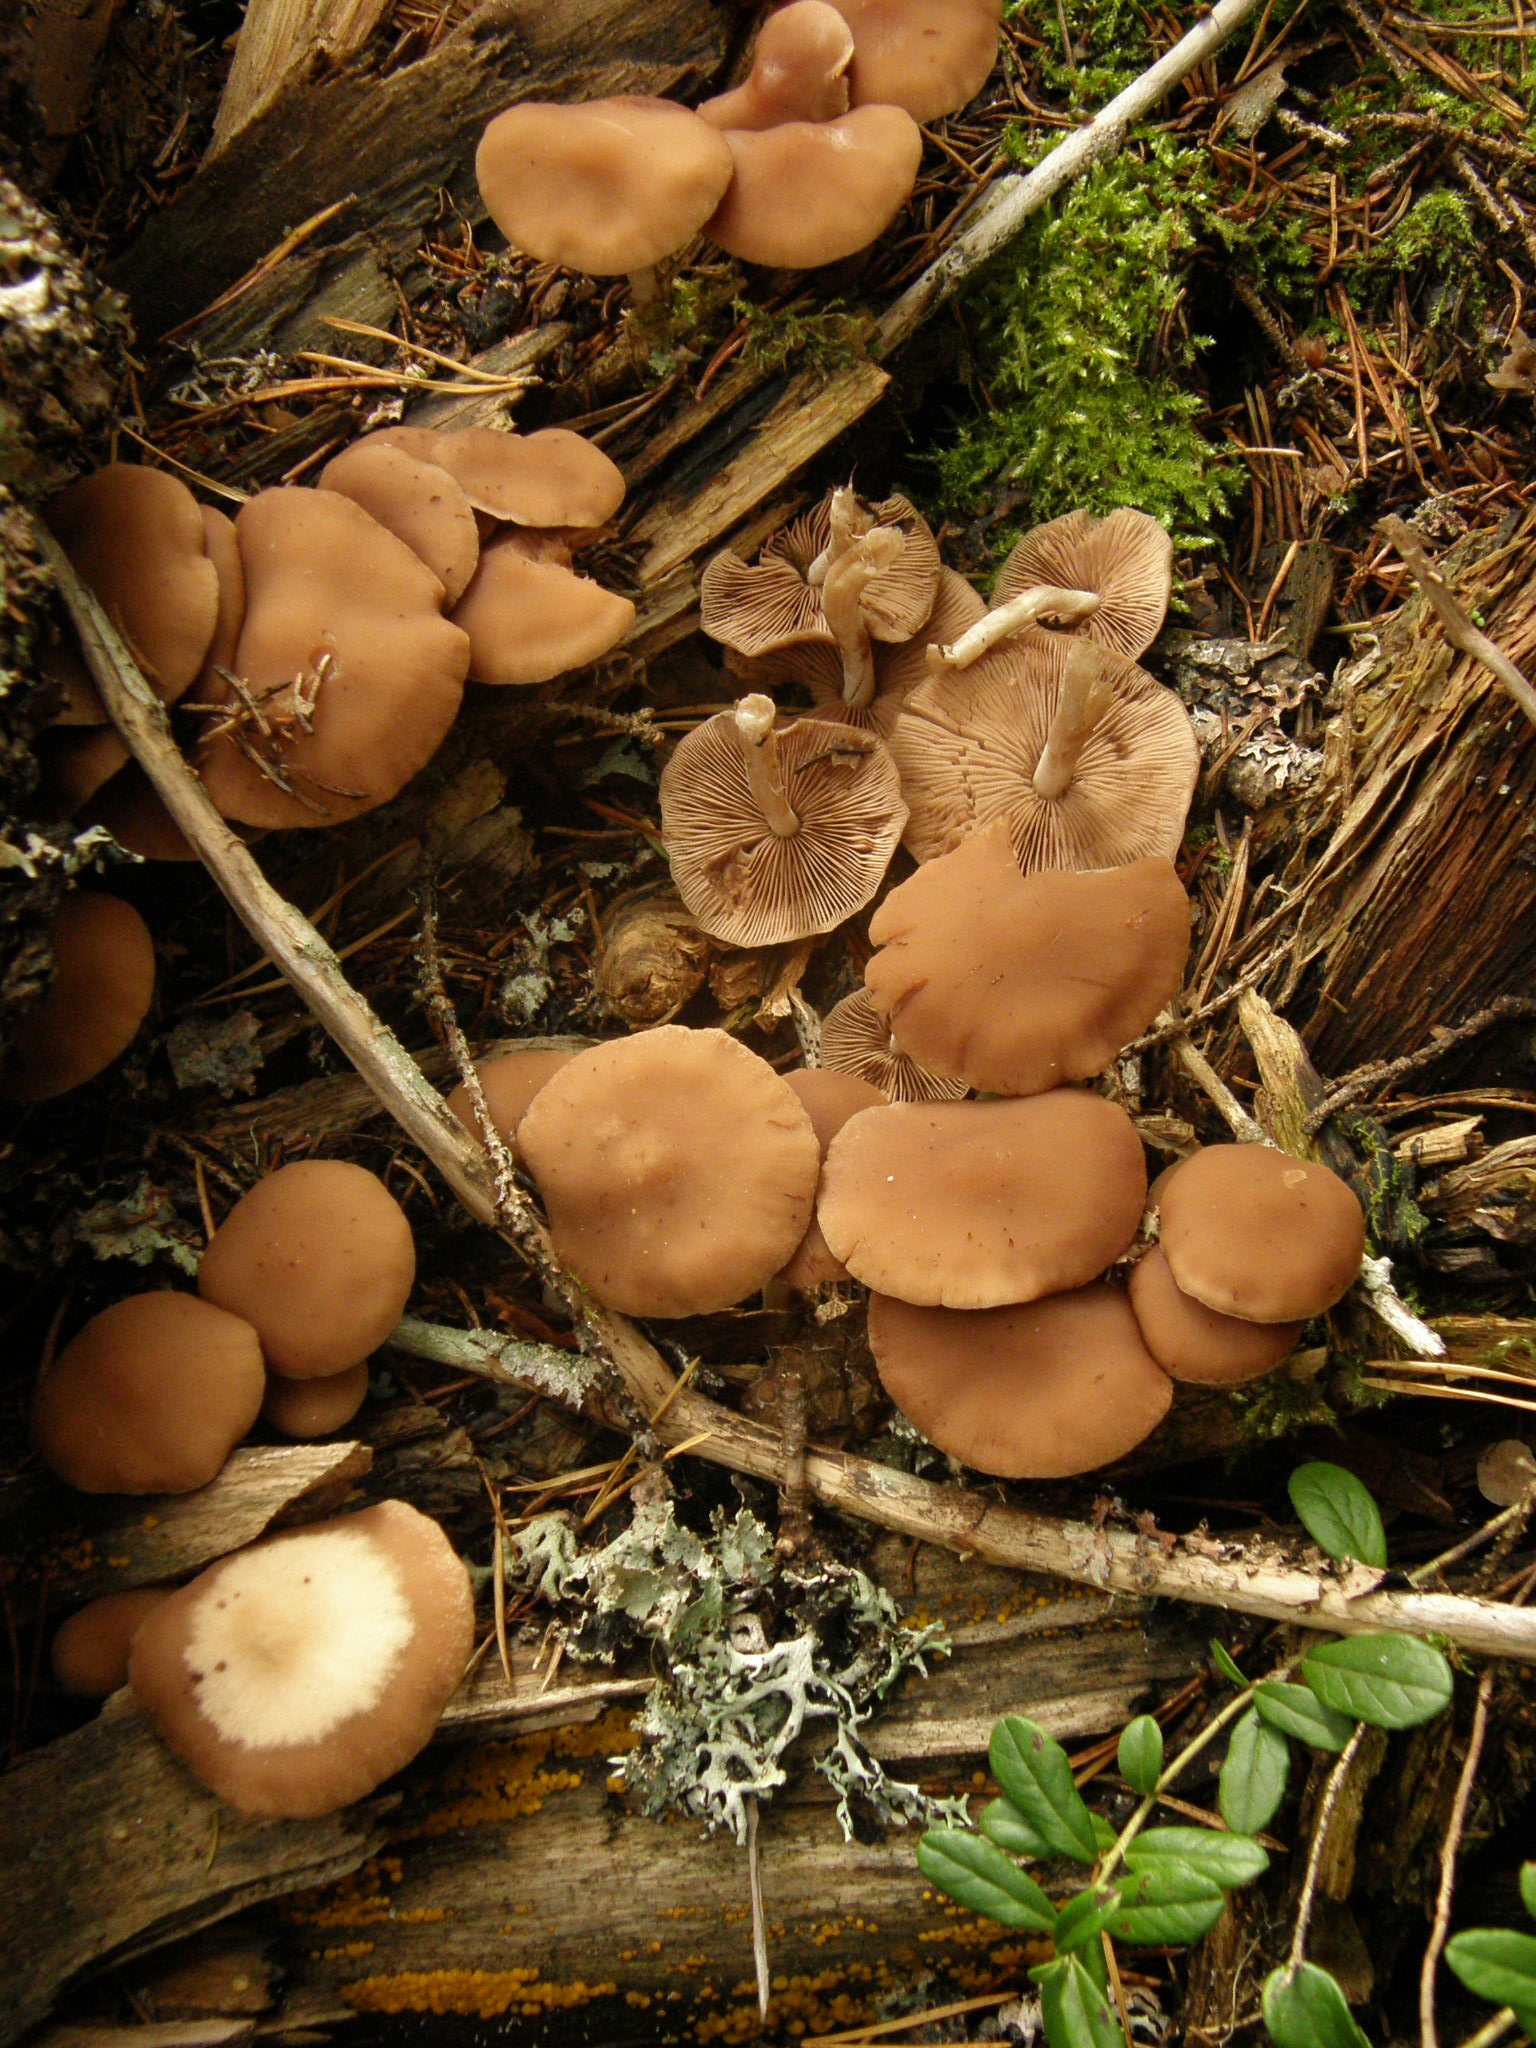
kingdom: Fungi
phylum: Basidiomycota
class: Agaricomycetes
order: Agaricales
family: Psathyrellaceae
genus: Homophron
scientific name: Homophron spadiceum
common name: Chestnut brittlestem
